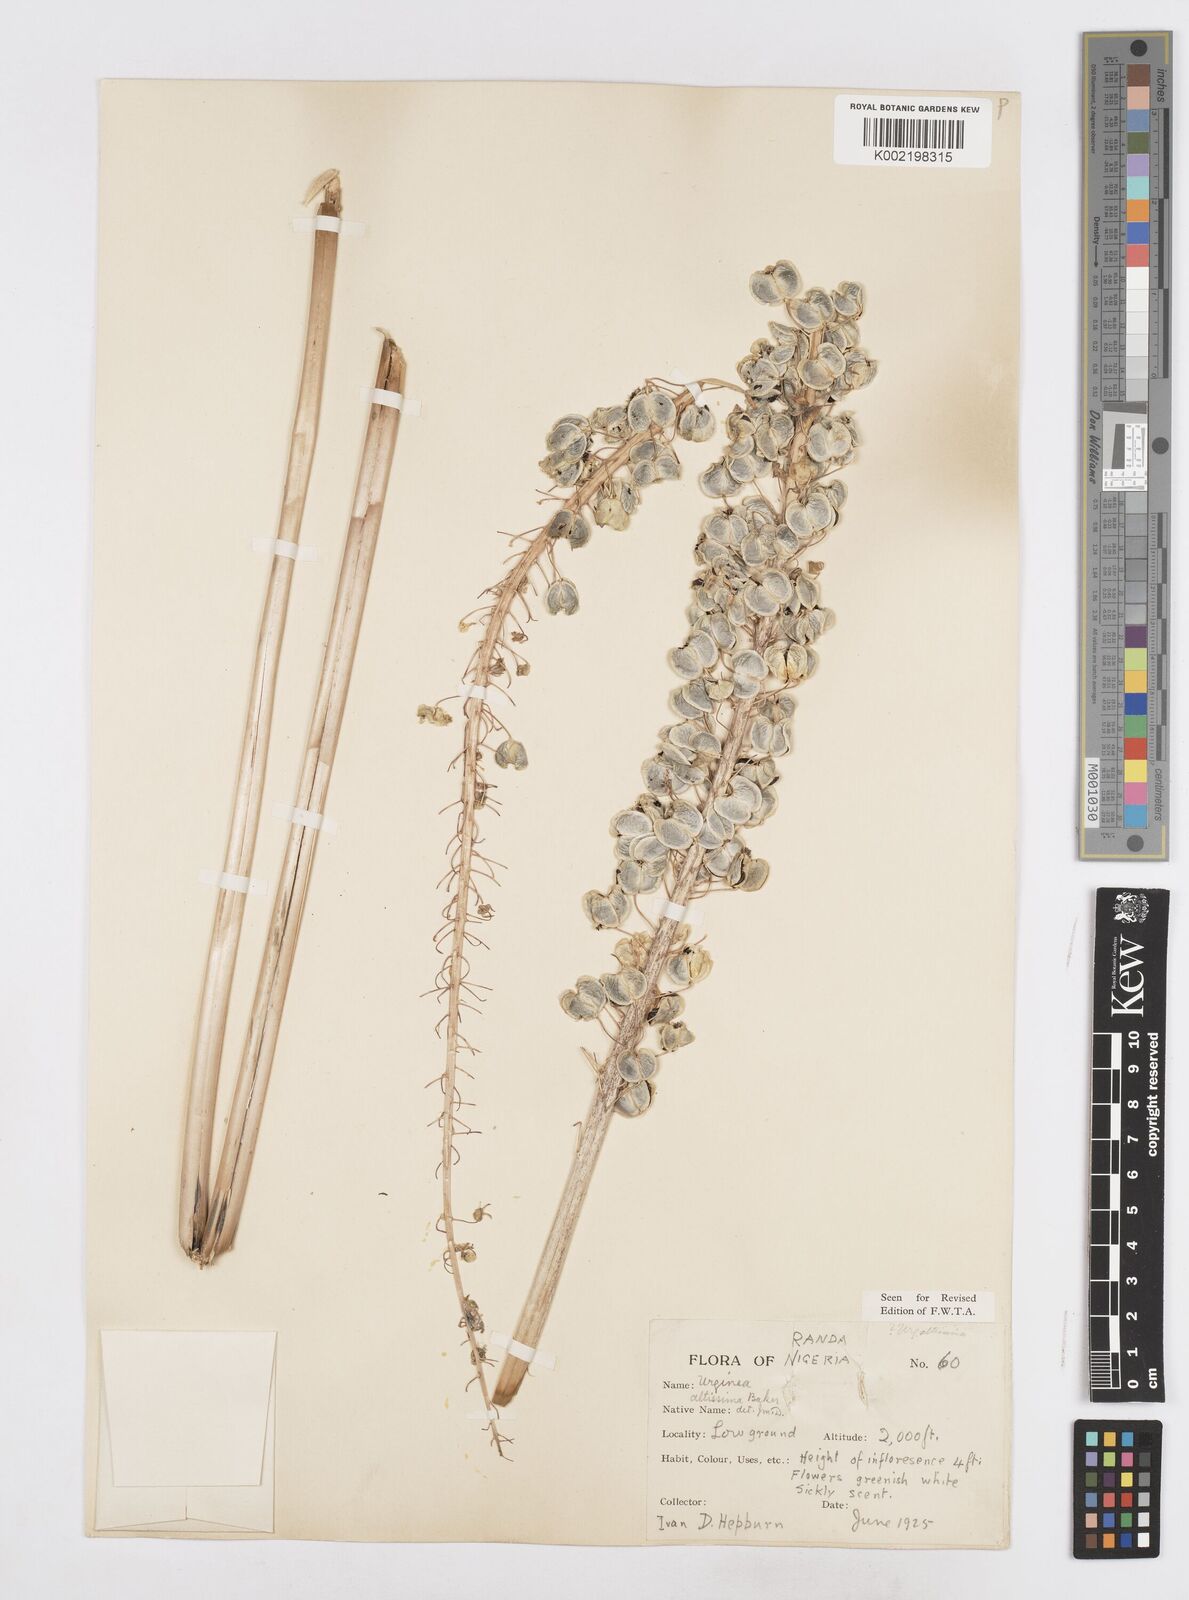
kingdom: Plantae
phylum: Tracheophyta
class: Liliopsida
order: Asparagales
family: Asparagaceae
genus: Drimia
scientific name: Drimia altissima
